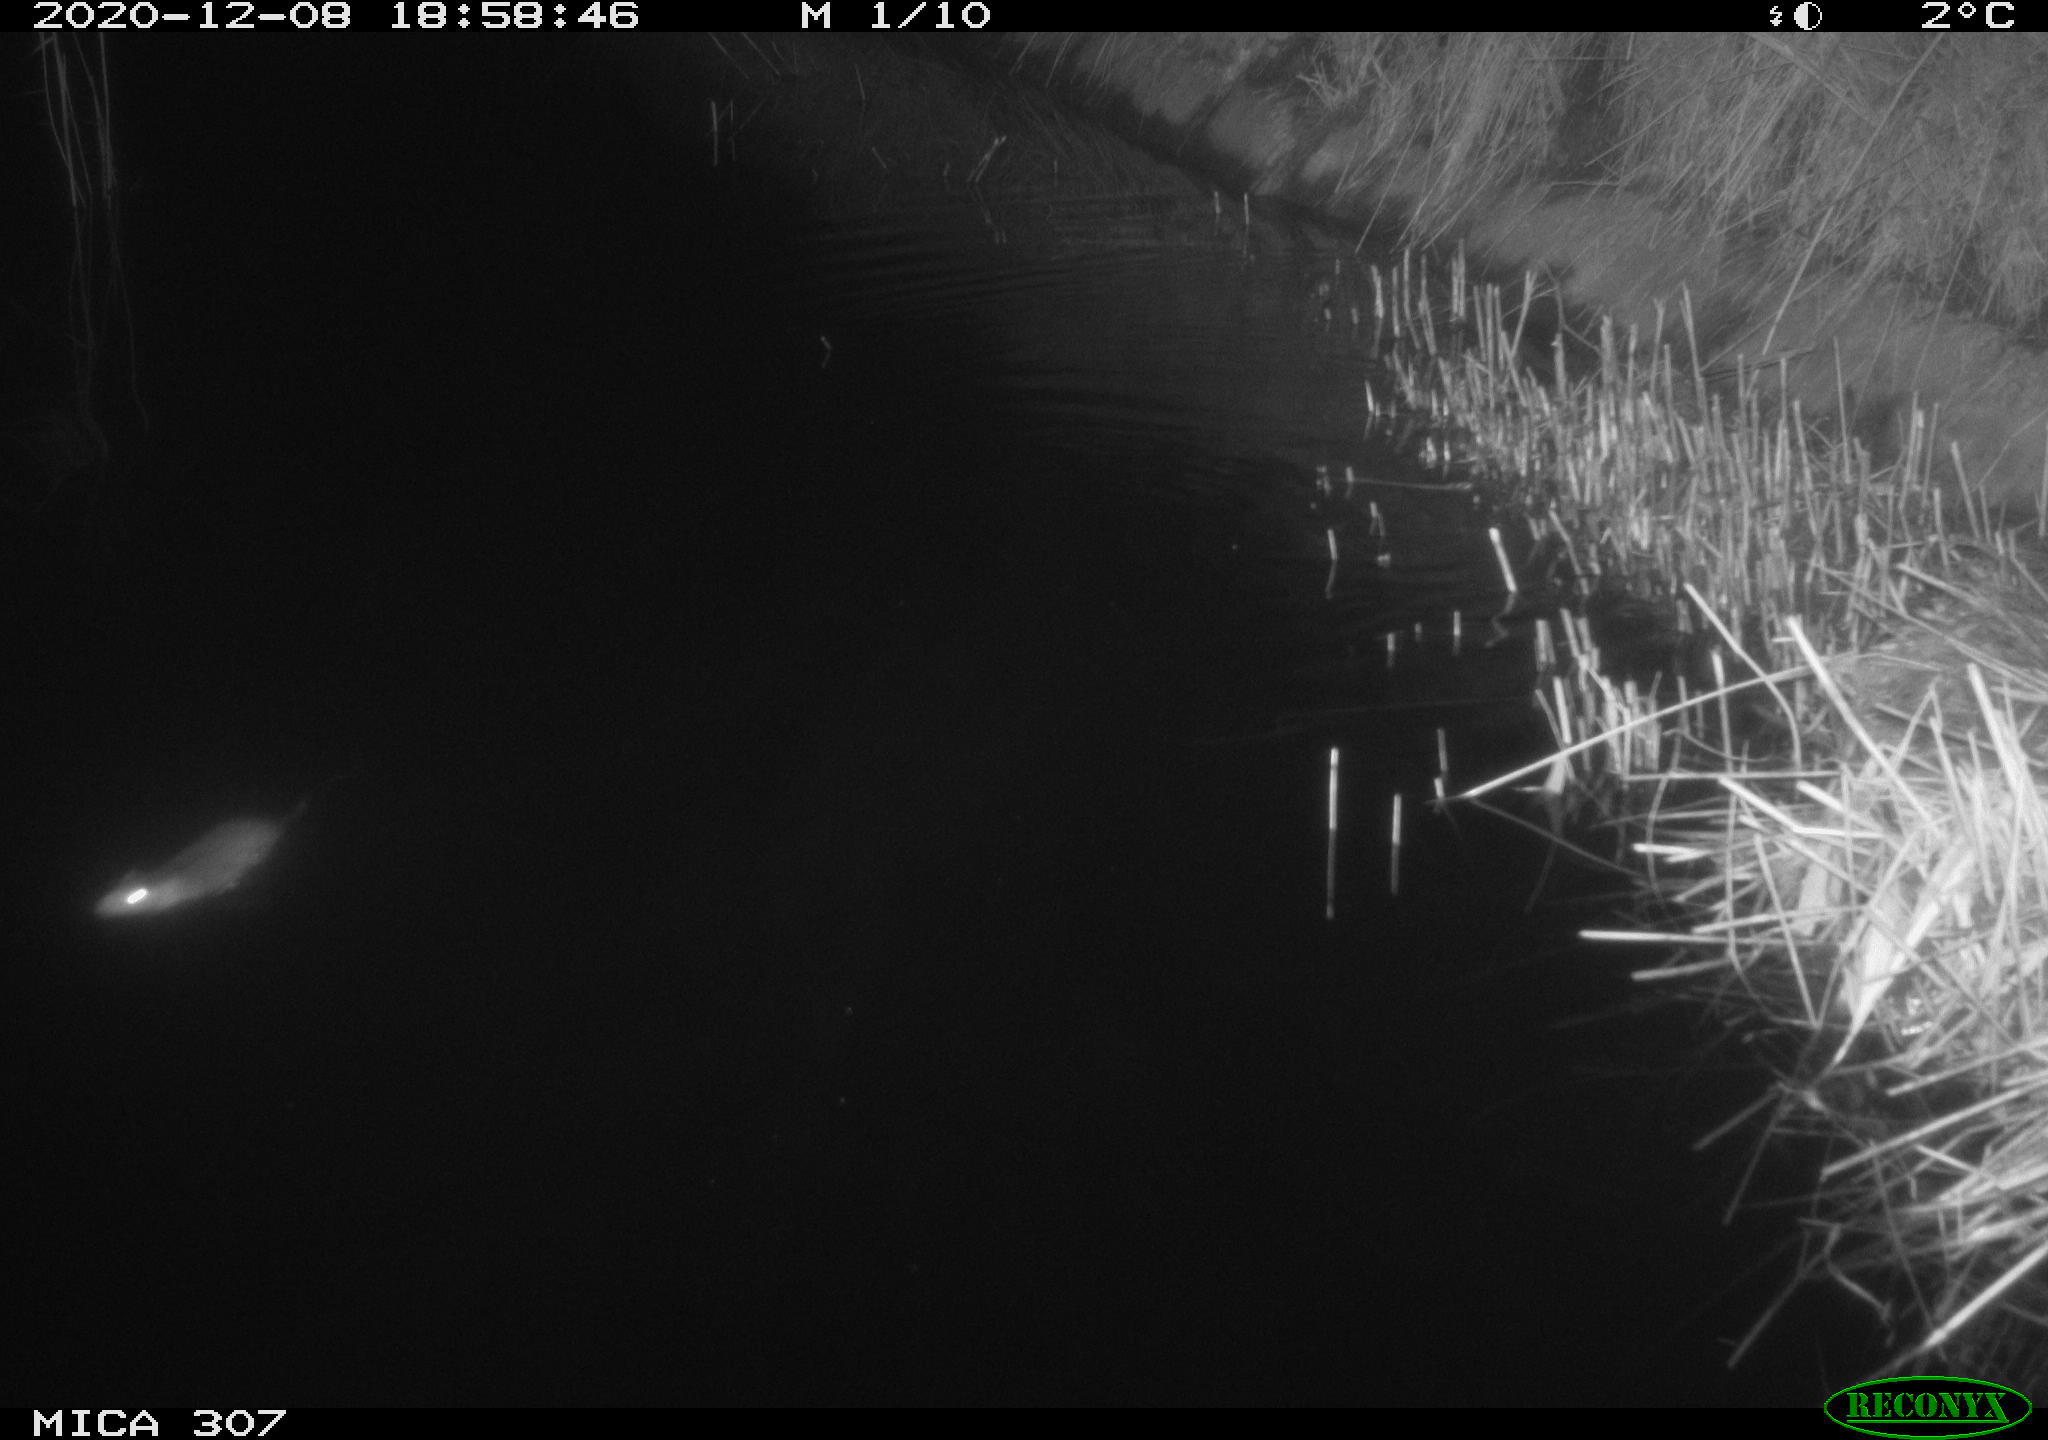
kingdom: Animalia
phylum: Chordata
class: Mammalia
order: Rodentia
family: Muridae
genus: Rattus
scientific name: Rattus norvegicus
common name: Brown rat
